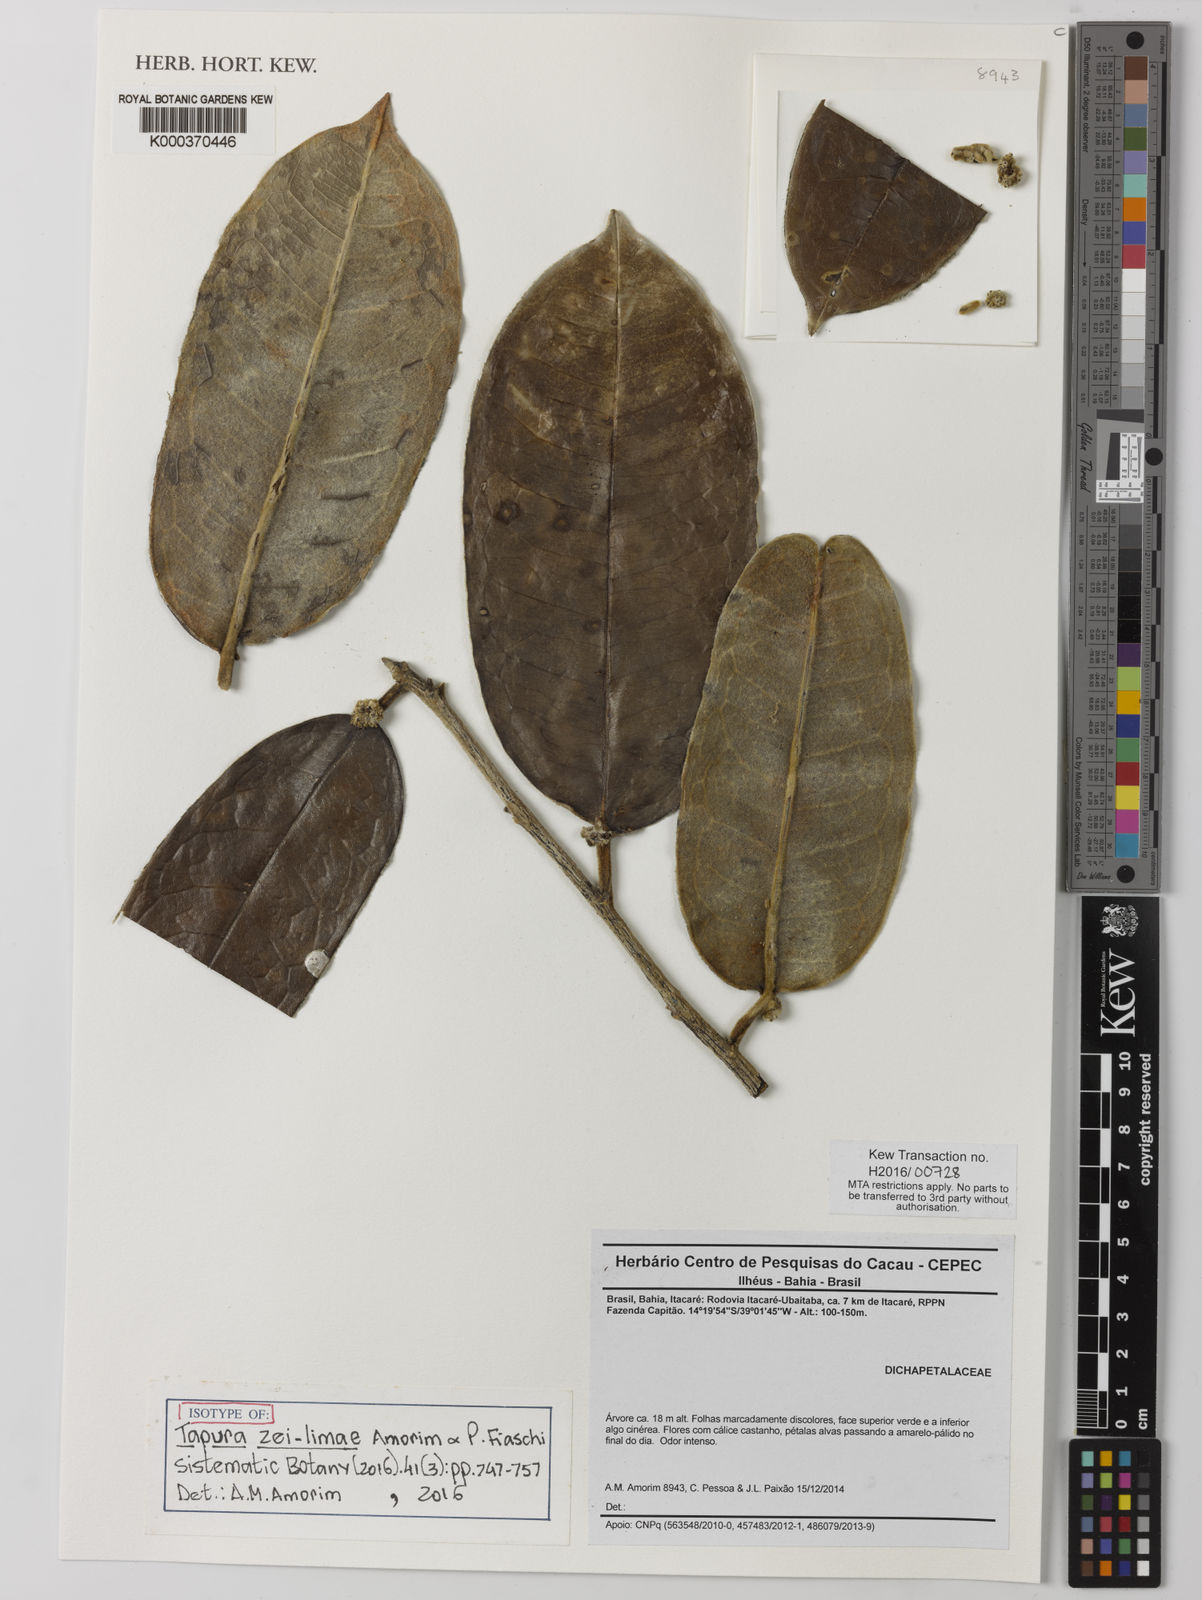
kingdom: Plantae
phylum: Tracheophyta
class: Magnoliopsida
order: Malpighiales
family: Dichapetalaceae
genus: Tapura
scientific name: Tapura zei-limae
